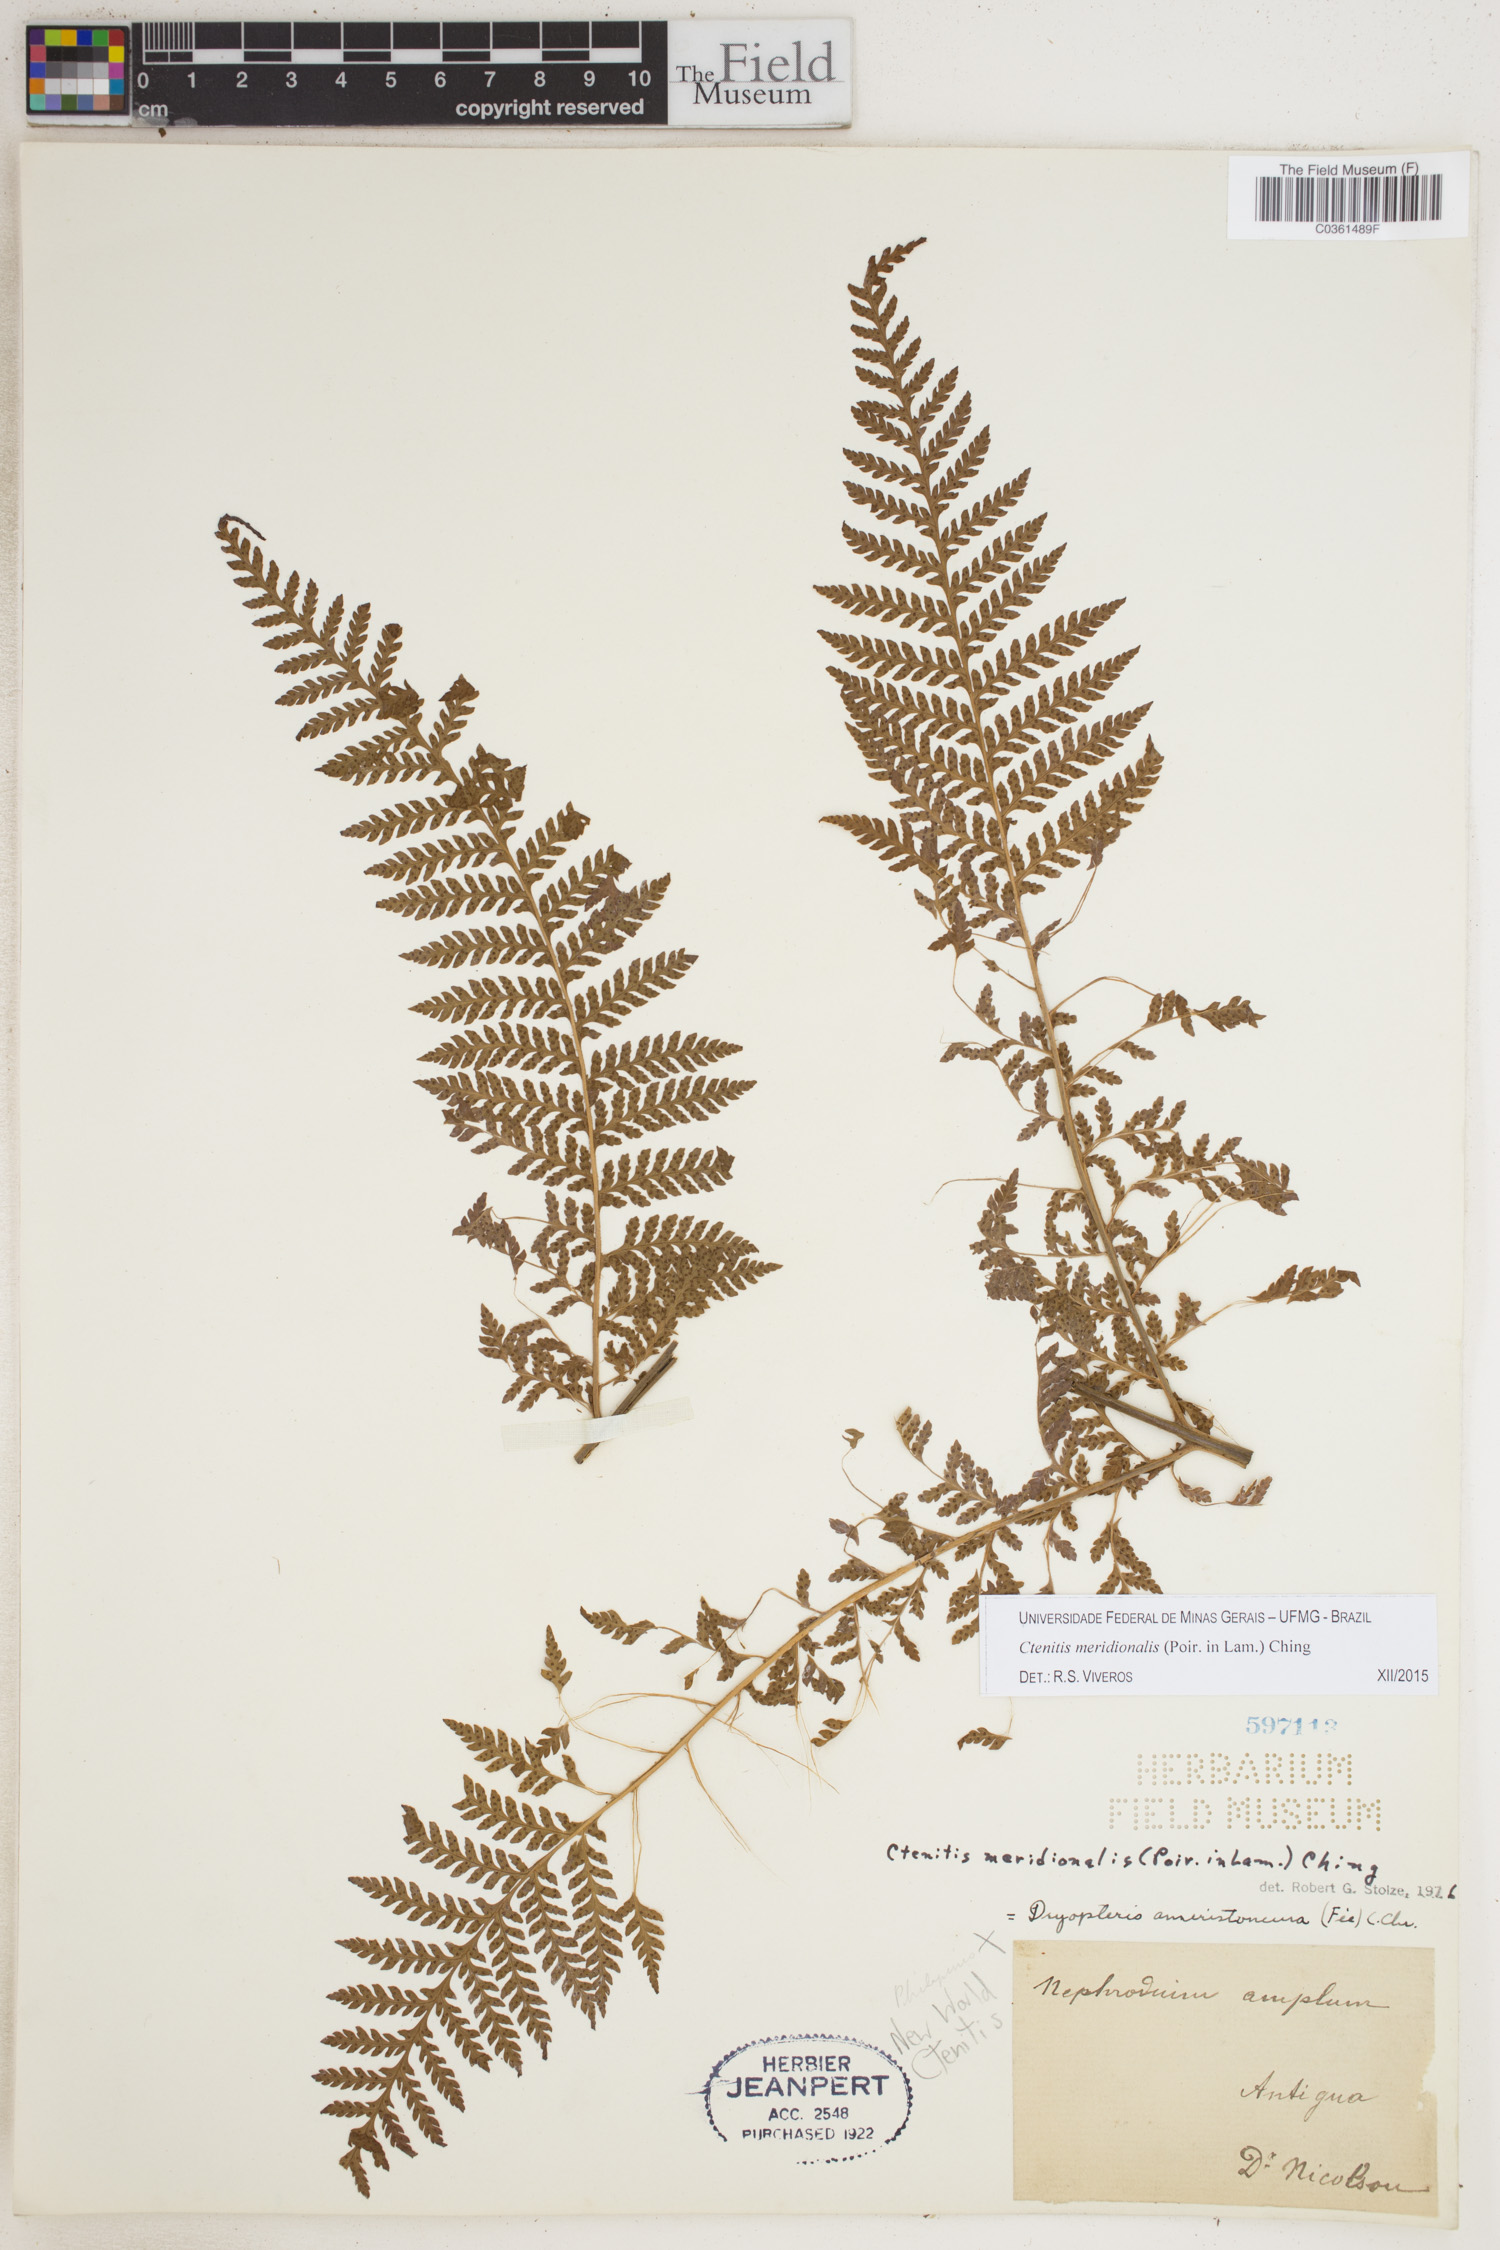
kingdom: Plantae
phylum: Tracheophyta
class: Polypodiopsida
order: Polypodiales
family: Dryopteridaceae
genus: Ctenitis
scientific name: Ctenitis meridionalis
